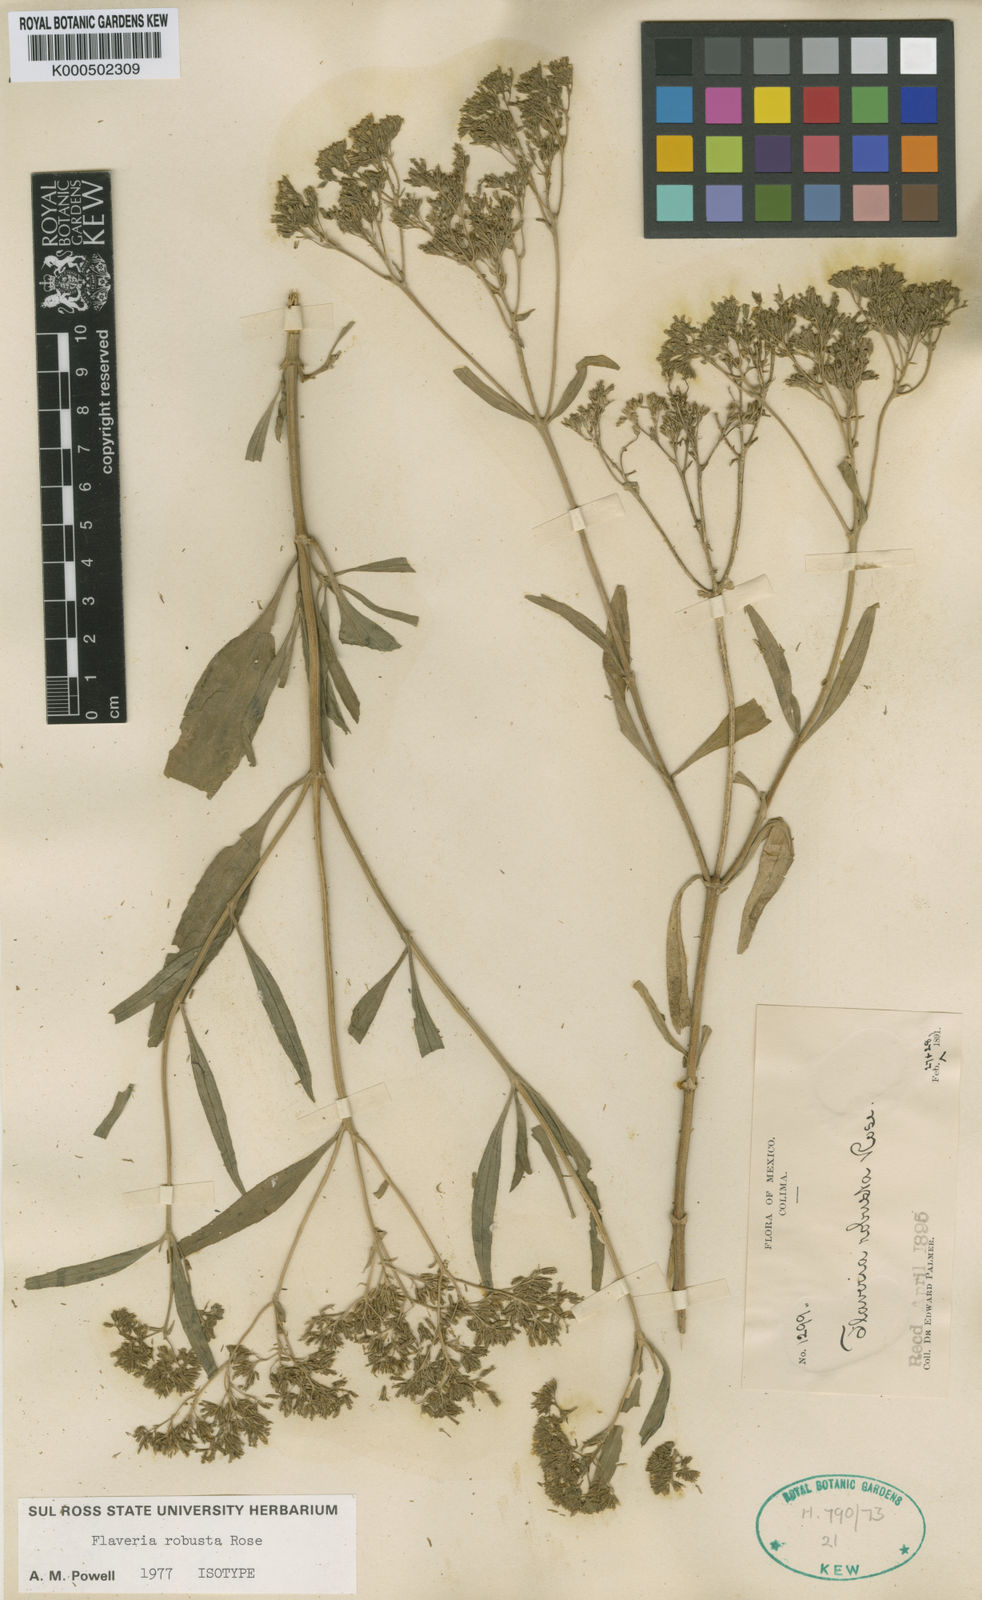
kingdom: Plantae
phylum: Tracheophyta
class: Magnoliopsida
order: Asterales
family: Asteraceae
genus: Flaveria
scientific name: Flaveria robusta
